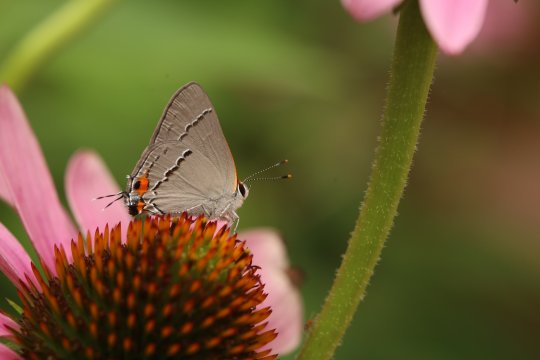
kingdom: Animalia
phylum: Arthropoda
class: Insecta
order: Lepidoptera
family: Lycaenidae
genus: Strymon
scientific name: Strymon melinus
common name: Gray Hairstreak
